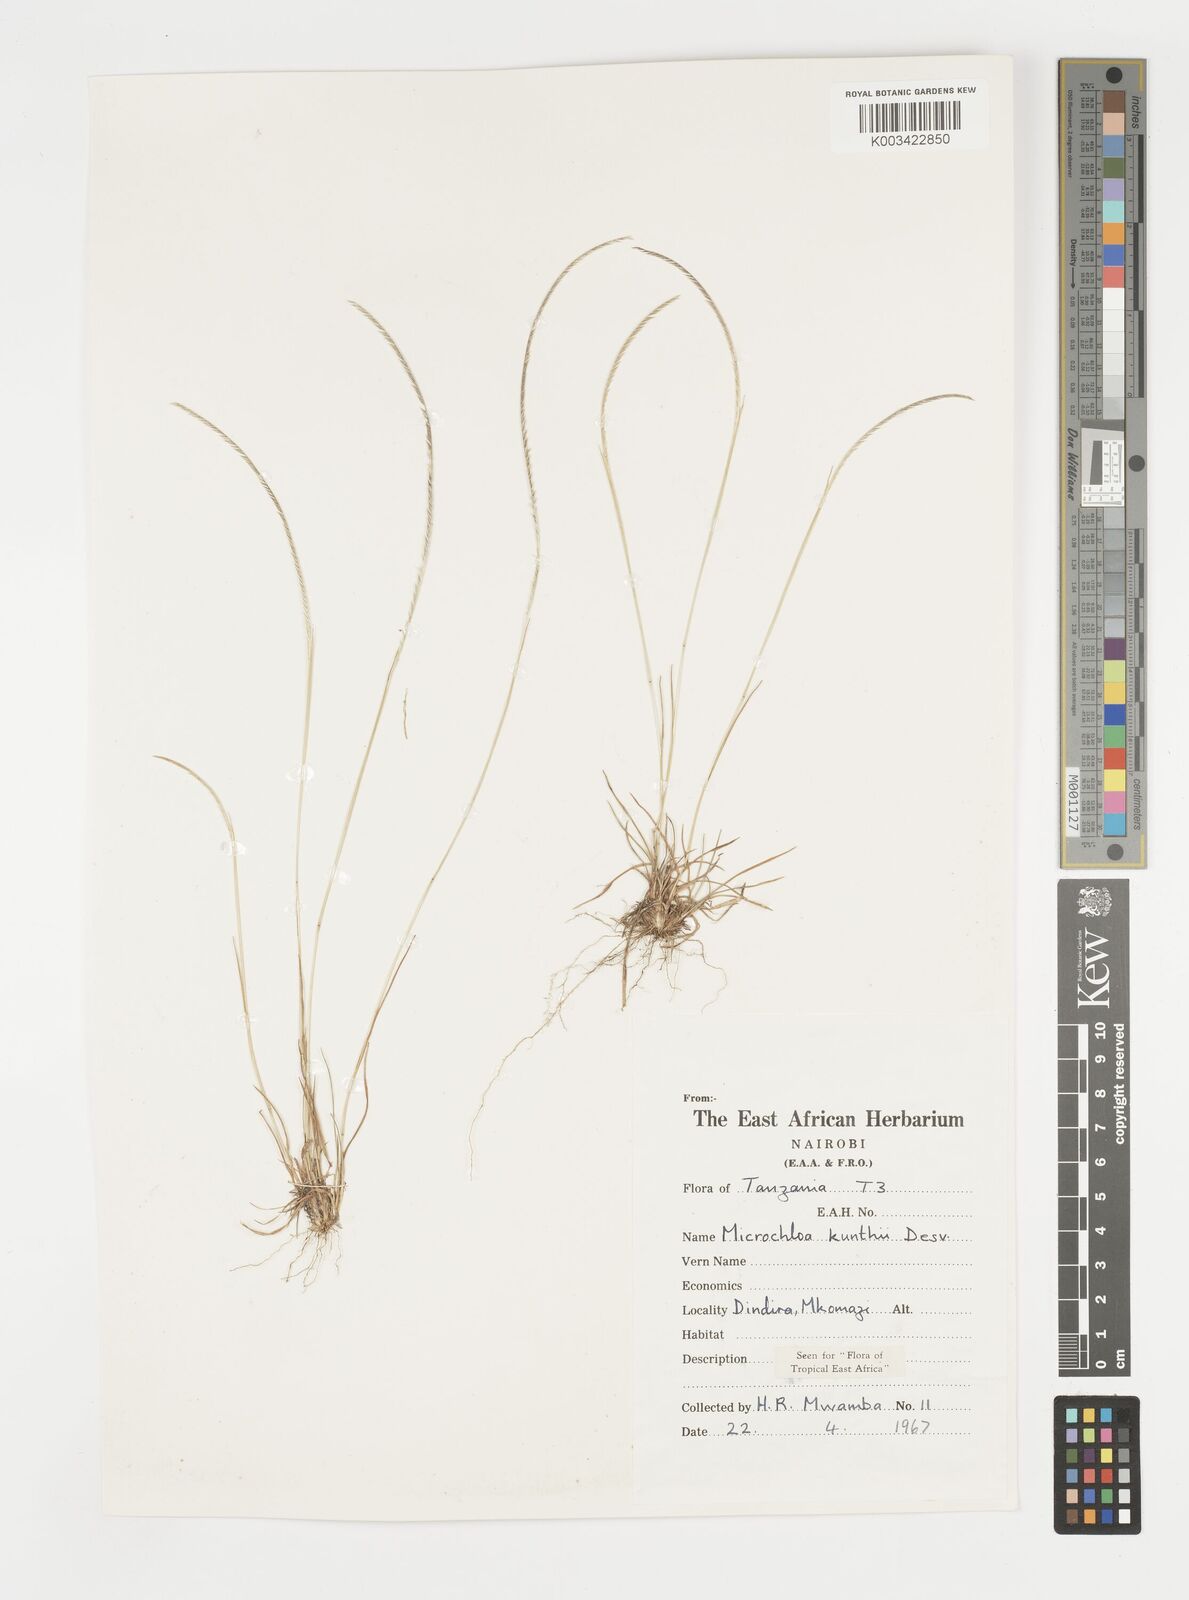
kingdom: Plantae
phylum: Tracheophyta
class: Liliopsida
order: Poales
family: Poaceae
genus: Microchloa
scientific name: Microchloa kunthii
